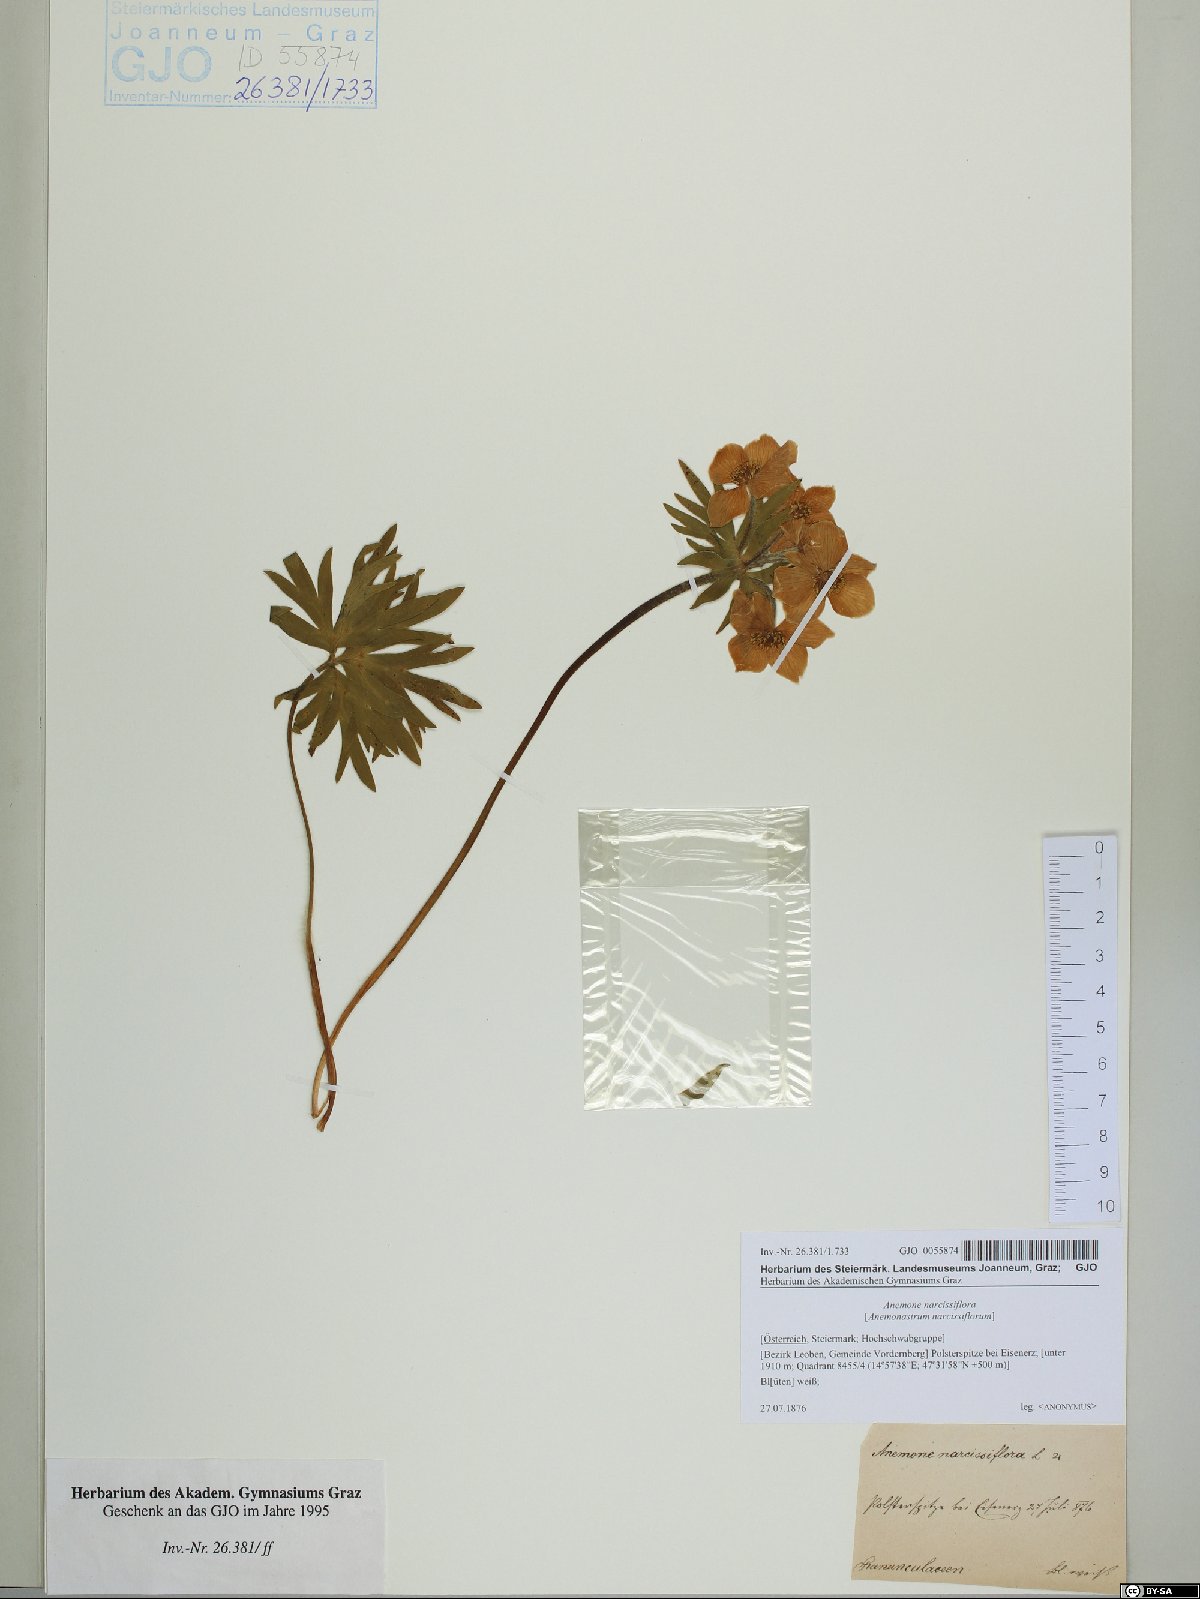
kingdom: Plantae
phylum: Tracheophyta
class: Magnoliopsida
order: Ranunculales
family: Ranunculaceae
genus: Anemonastrum
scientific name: Anemonastrum narcissiflorum
